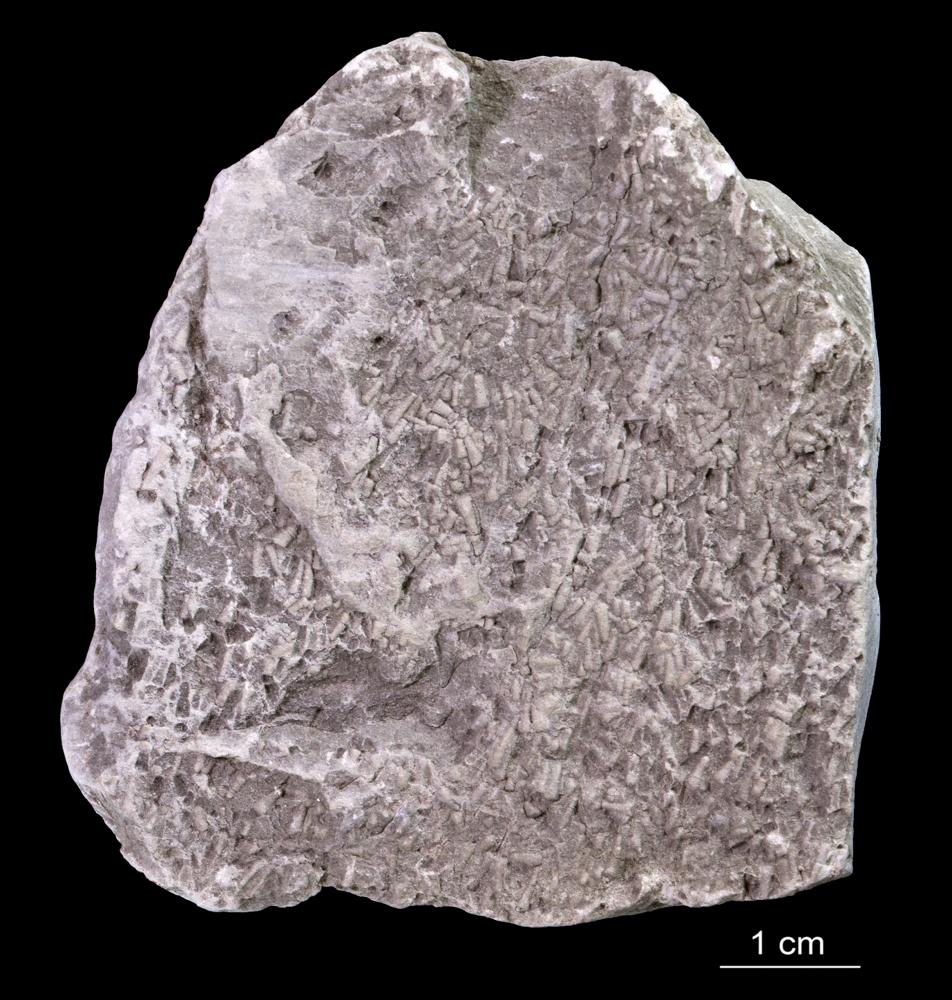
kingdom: Animalia
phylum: Annelida
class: Polychaeta
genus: Volborthella
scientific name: Volborthella tenuis
